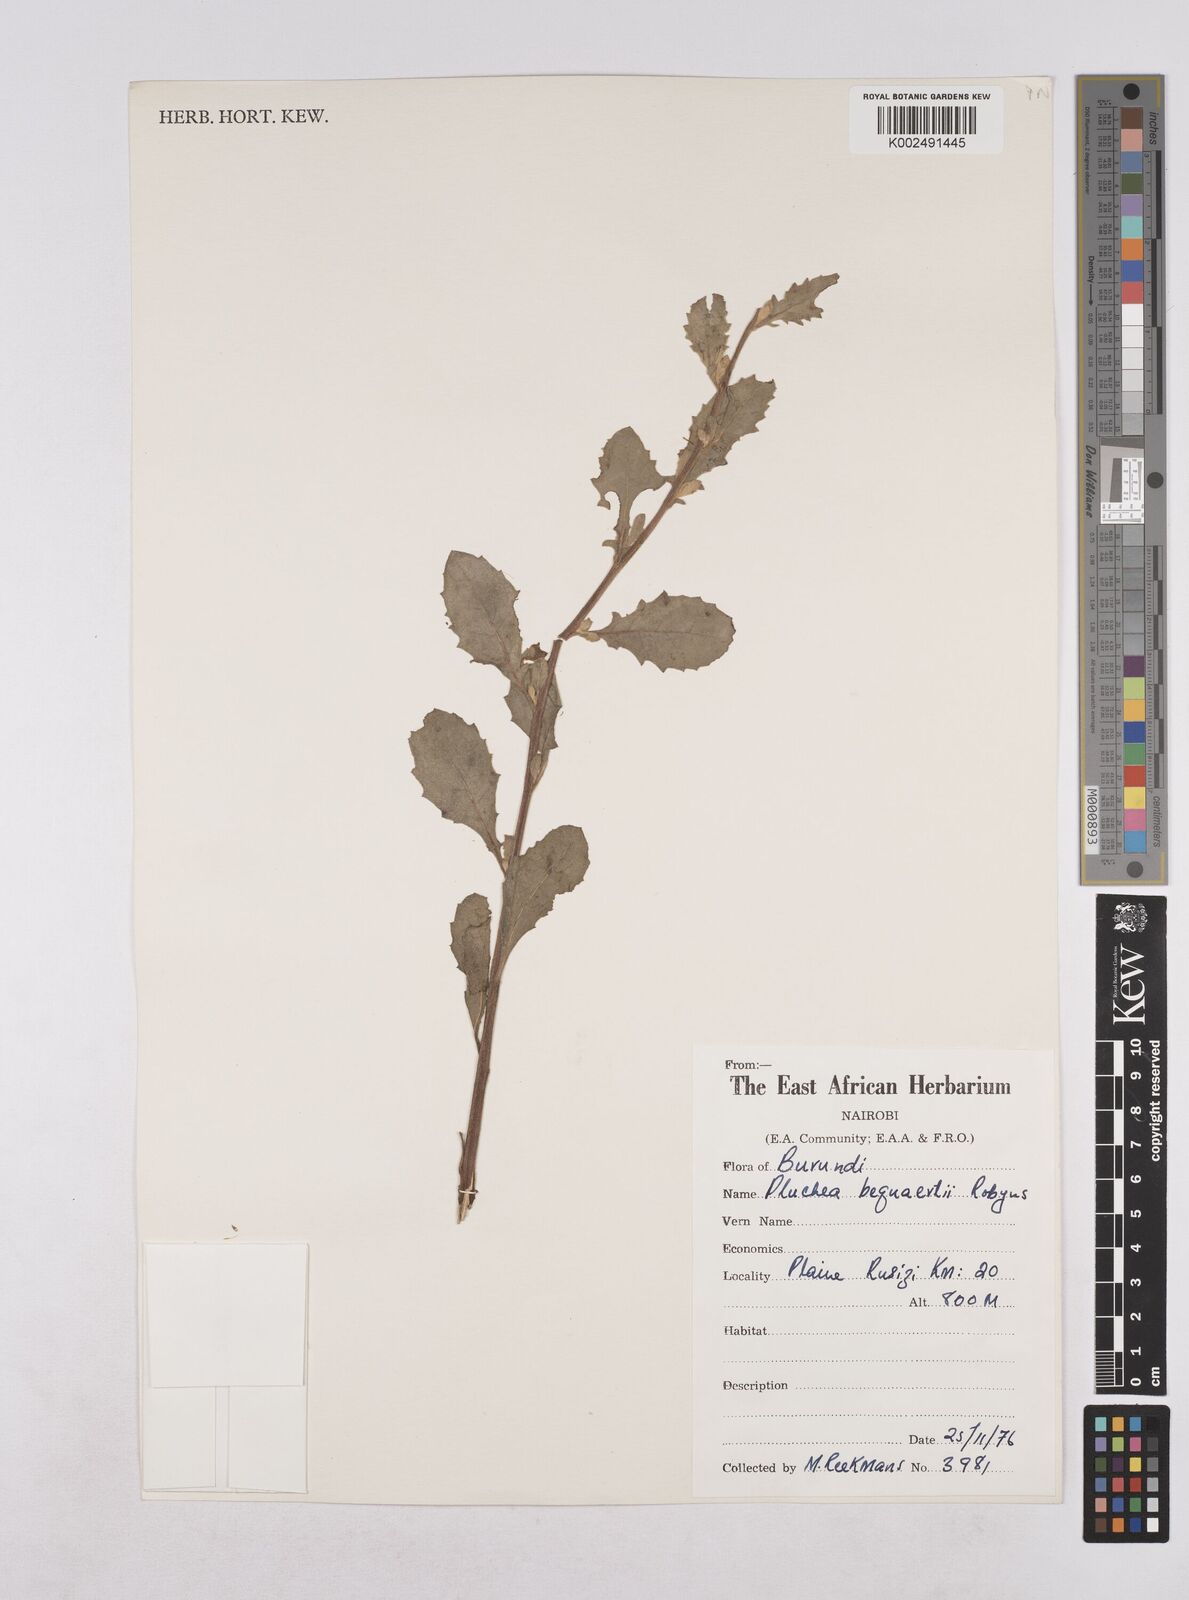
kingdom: Plantae
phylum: Tracheophyta
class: Magnoliopsida
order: Asterales
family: Asteraceae
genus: Pluchea
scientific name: Pluchea sordida
